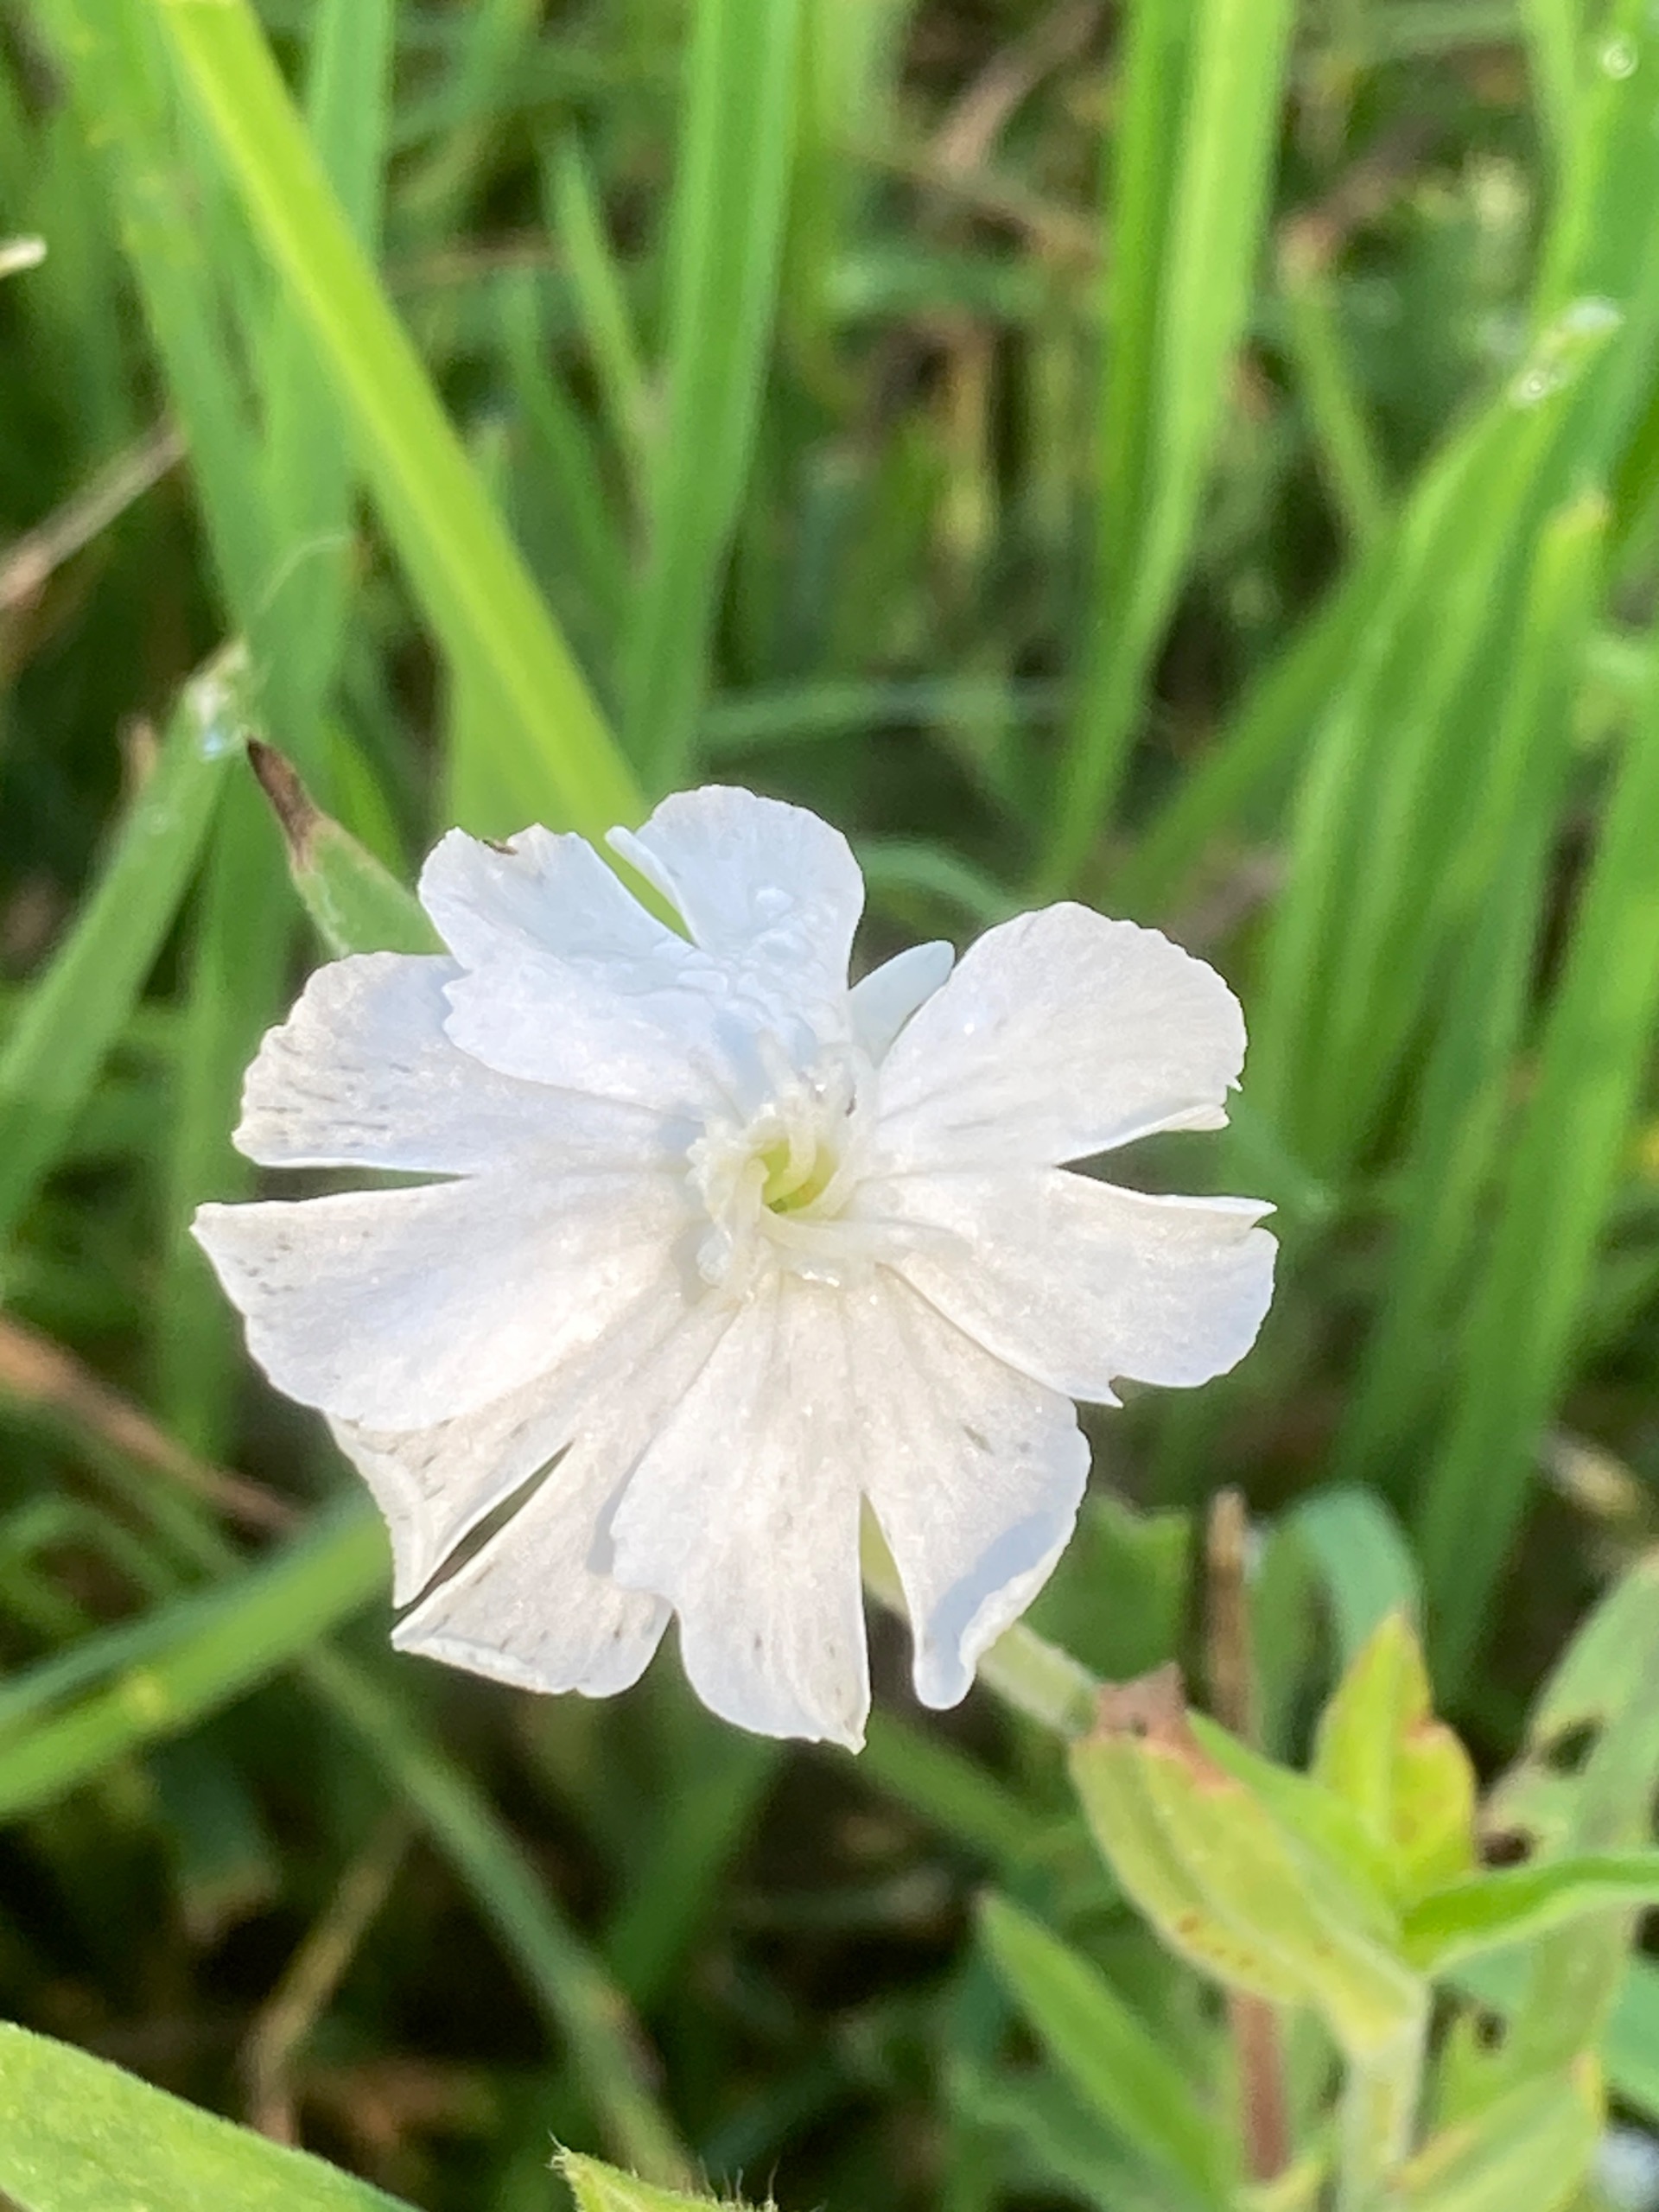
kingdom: Plantae
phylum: Tracheophyta
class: Magnoliopsida
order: Caryophyllales
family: Caryophyllaceae
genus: Silene
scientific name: Silene latifolia
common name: Aftenpragtstjerne
